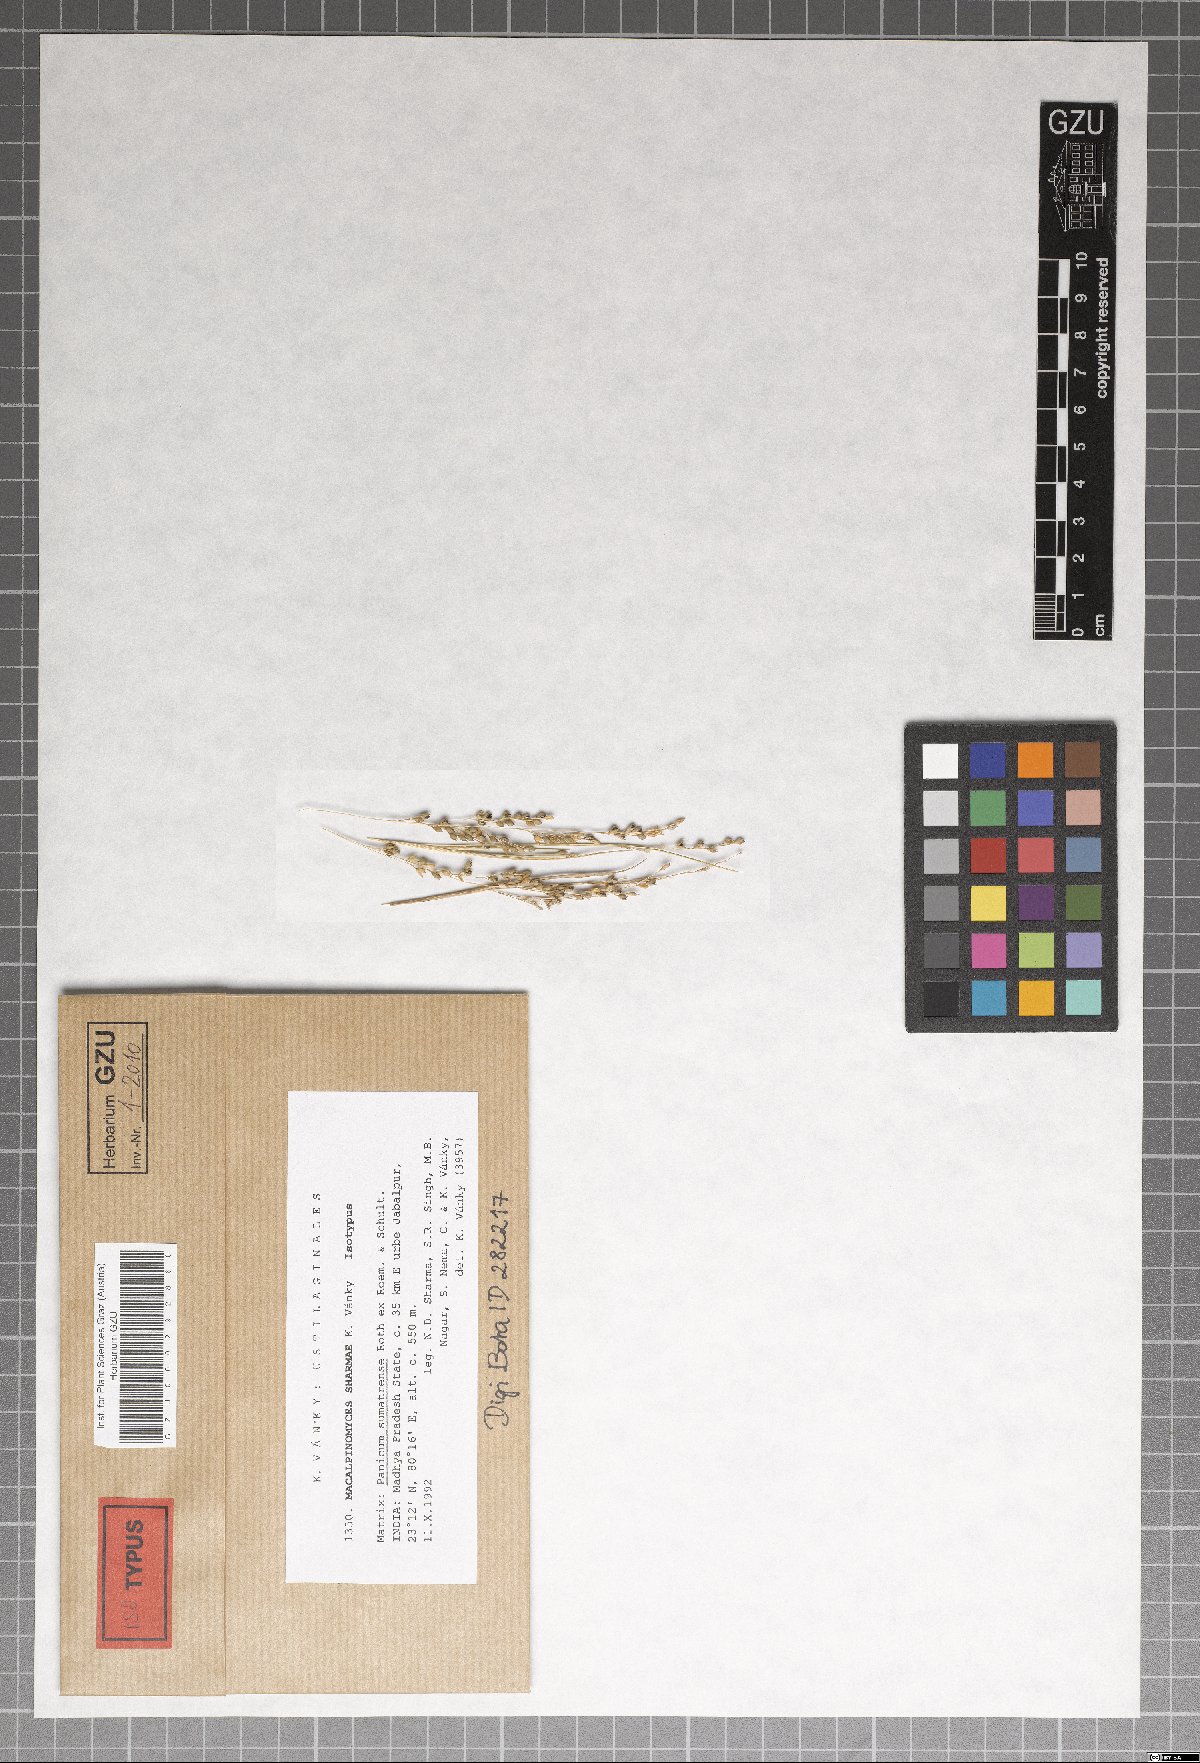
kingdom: Fungi
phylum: Basidiomycota
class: Ustilaginomycetes
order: Ustilaginales
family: Ustilaginaceae
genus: Macalpinomyces
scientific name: Macalpinomyces sharmae
